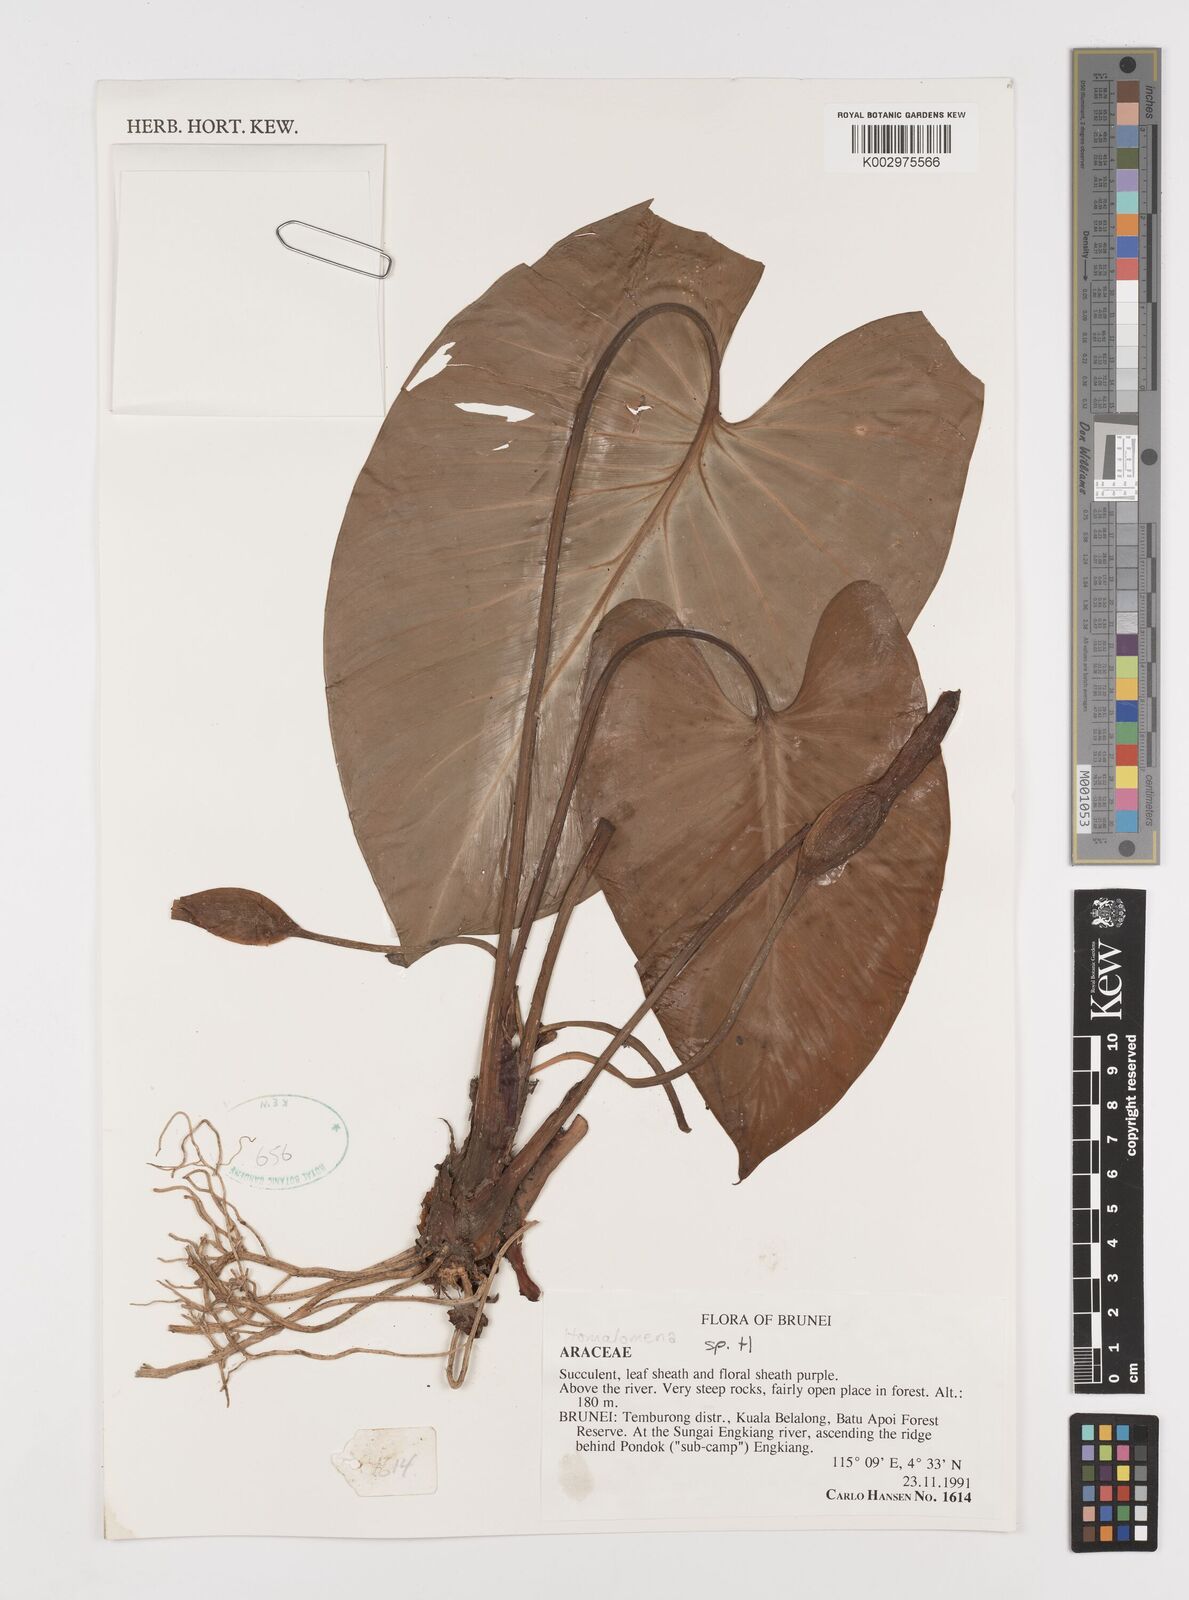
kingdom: Plantae
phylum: Tracheophyta
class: Liliopsida
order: Alismatales
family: Araceae
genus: Homalomena
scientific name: Homalomena
